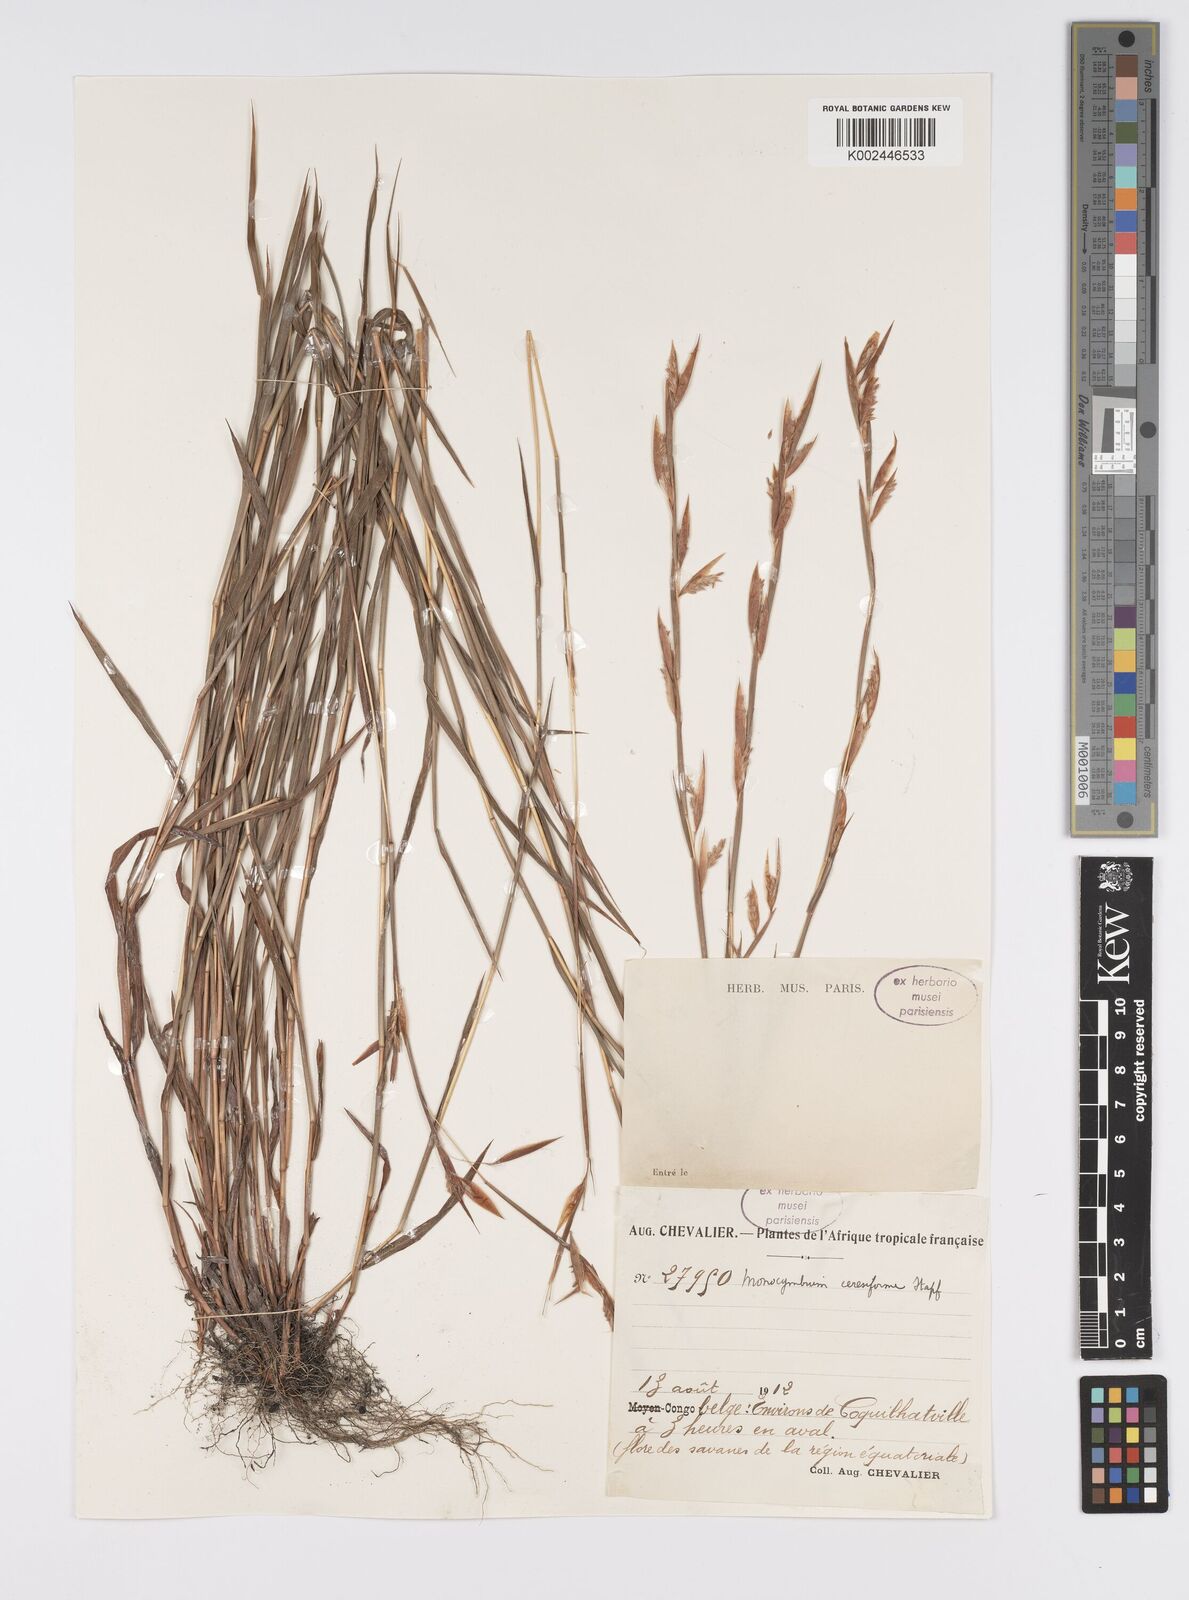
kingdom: Plantae
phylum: Tracheophyta
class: Liliopsida
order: Poales
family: Poaceae
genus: Monocymbium
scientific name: Monocymbium ceresiiforme
